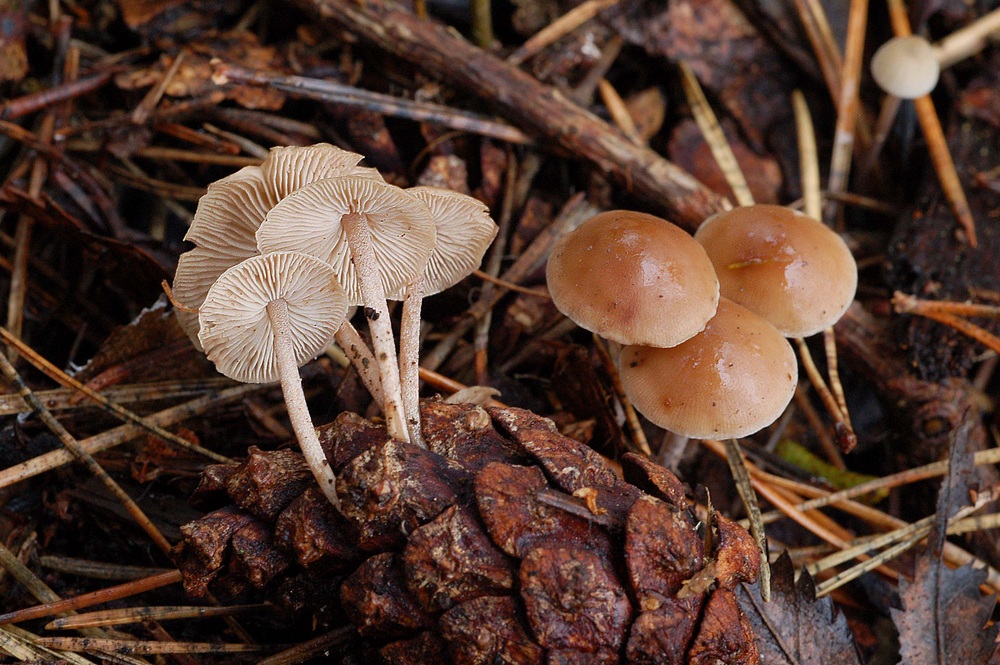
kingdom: Fungi
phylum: Basidiomycota
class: Agaricomycetes
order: Agaricales
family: Marasmiaceae
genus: Baeospora
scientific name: Baeospora myosura
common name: koglebruskhat
